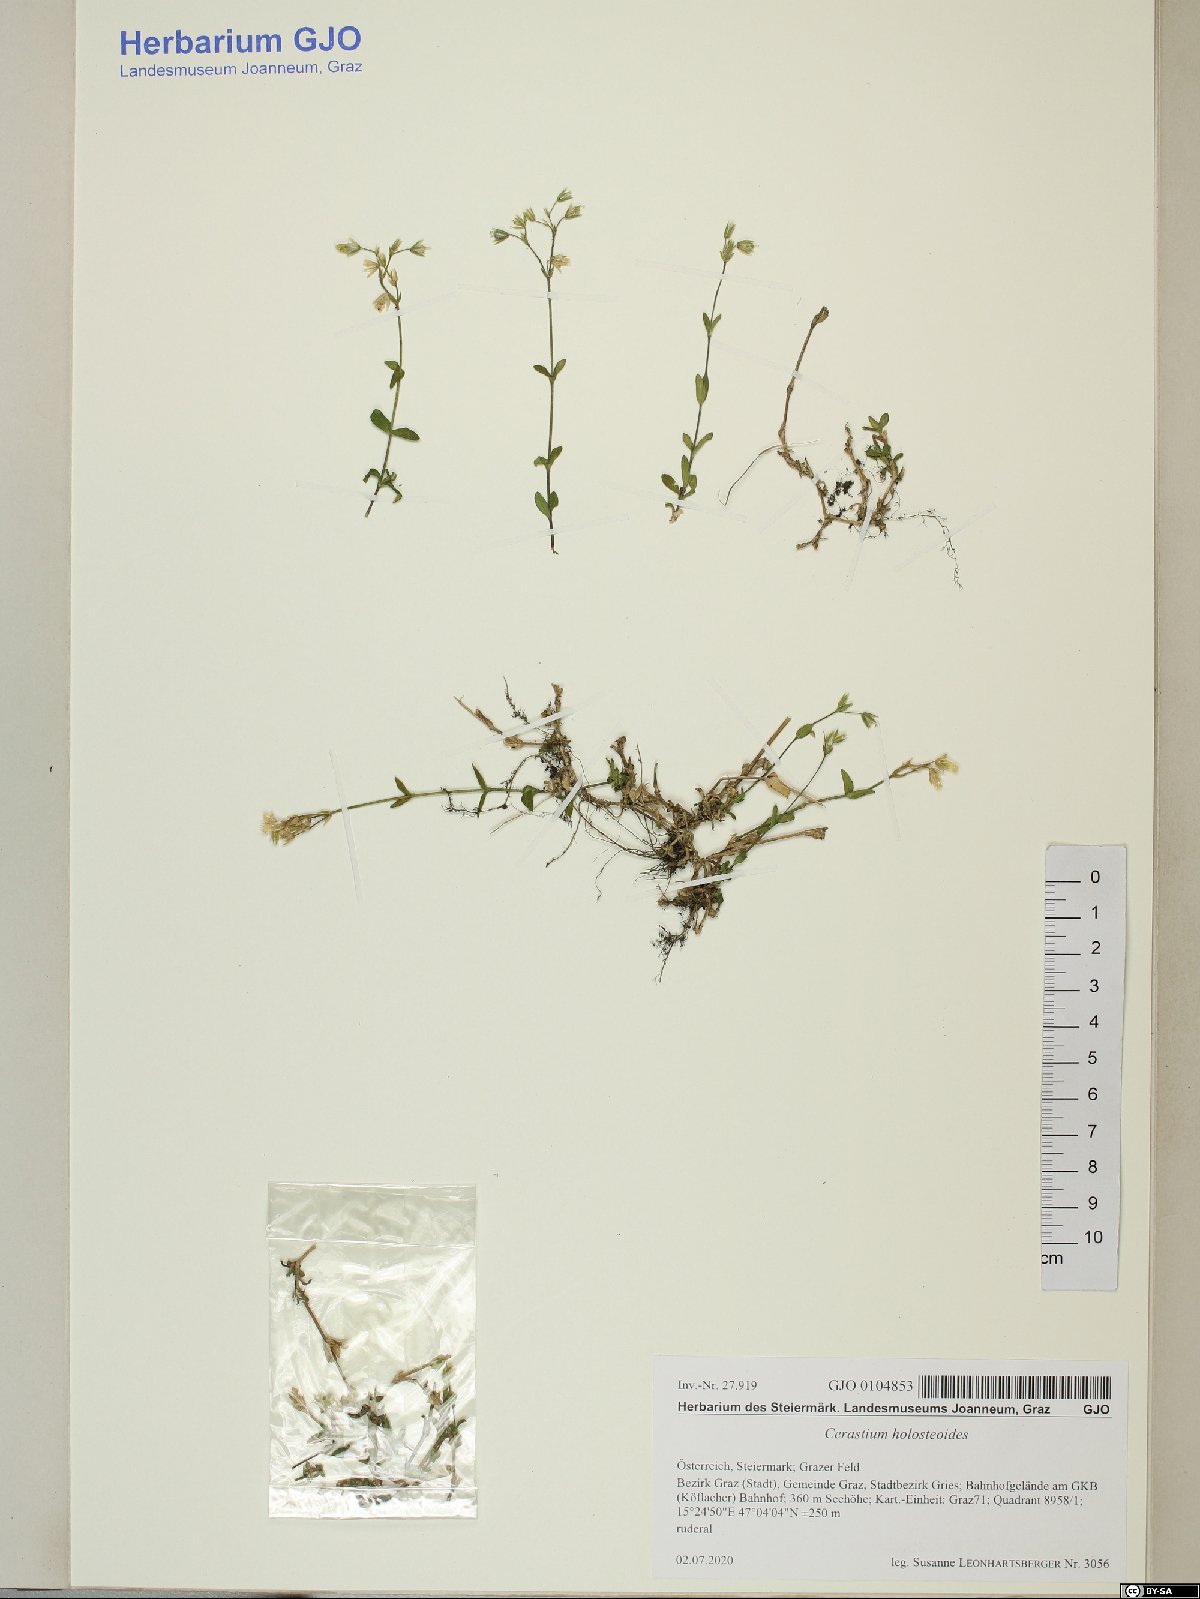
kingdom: Plantae
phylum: Tracheophyta
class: Magnoliopsida
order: Caryophyllales
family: Caryophyllaceae
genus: Cerastium
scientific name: Cerastium holosteoides
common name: Big chickweed
